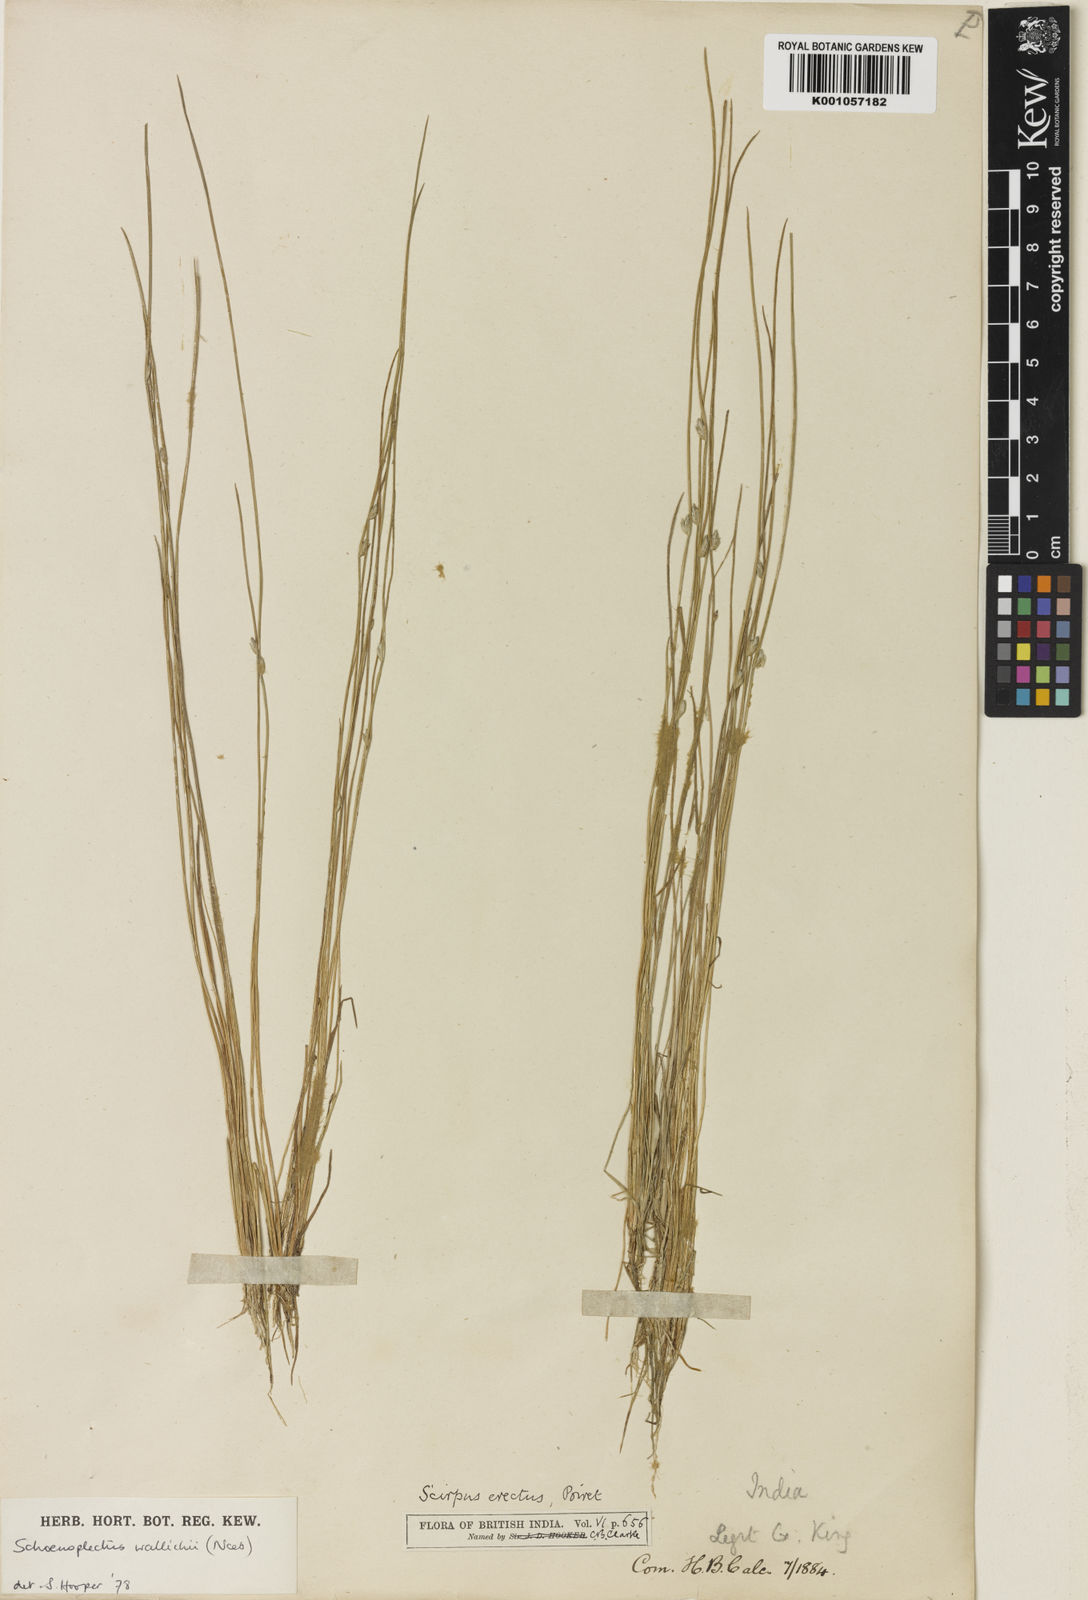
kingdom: Plantae
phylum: Tracheophyta
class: Liliopsida
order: Poales
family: Cyperaceae
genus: Schoenoplectiella
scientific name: Schoenoplectiella wallichii
